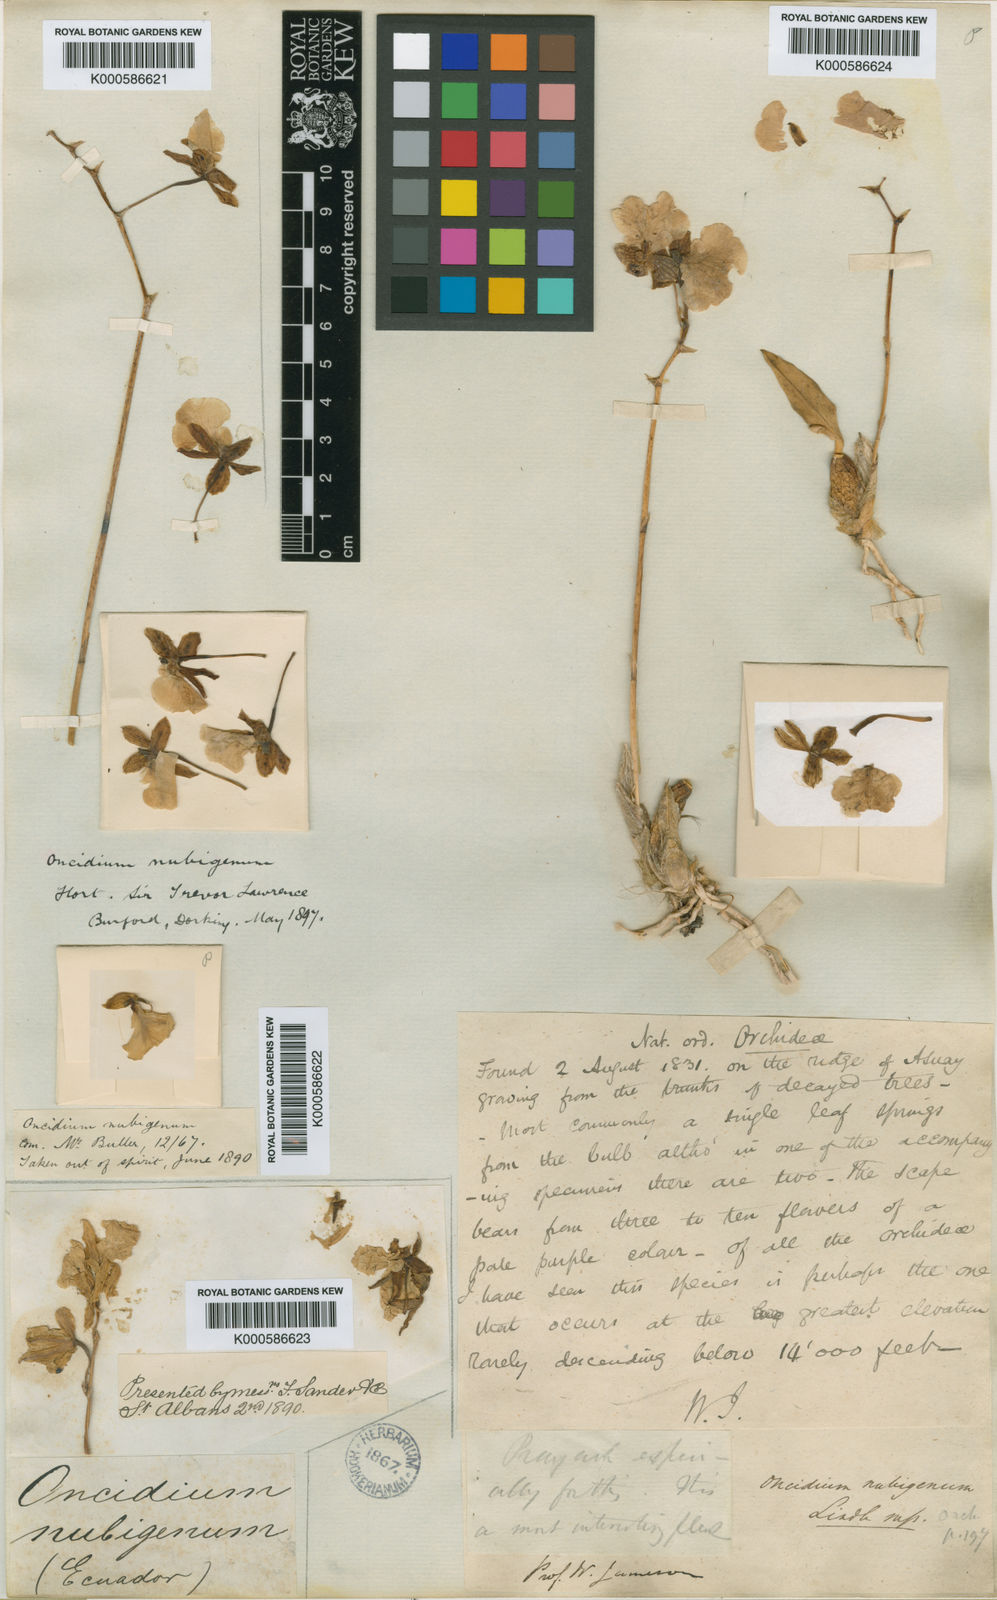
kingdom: Plantae
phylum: Tracheophyta
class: Liliopsida
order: Asparagales
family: Orchidaceae
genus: Caucaea
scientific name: Caucaea nubigena
